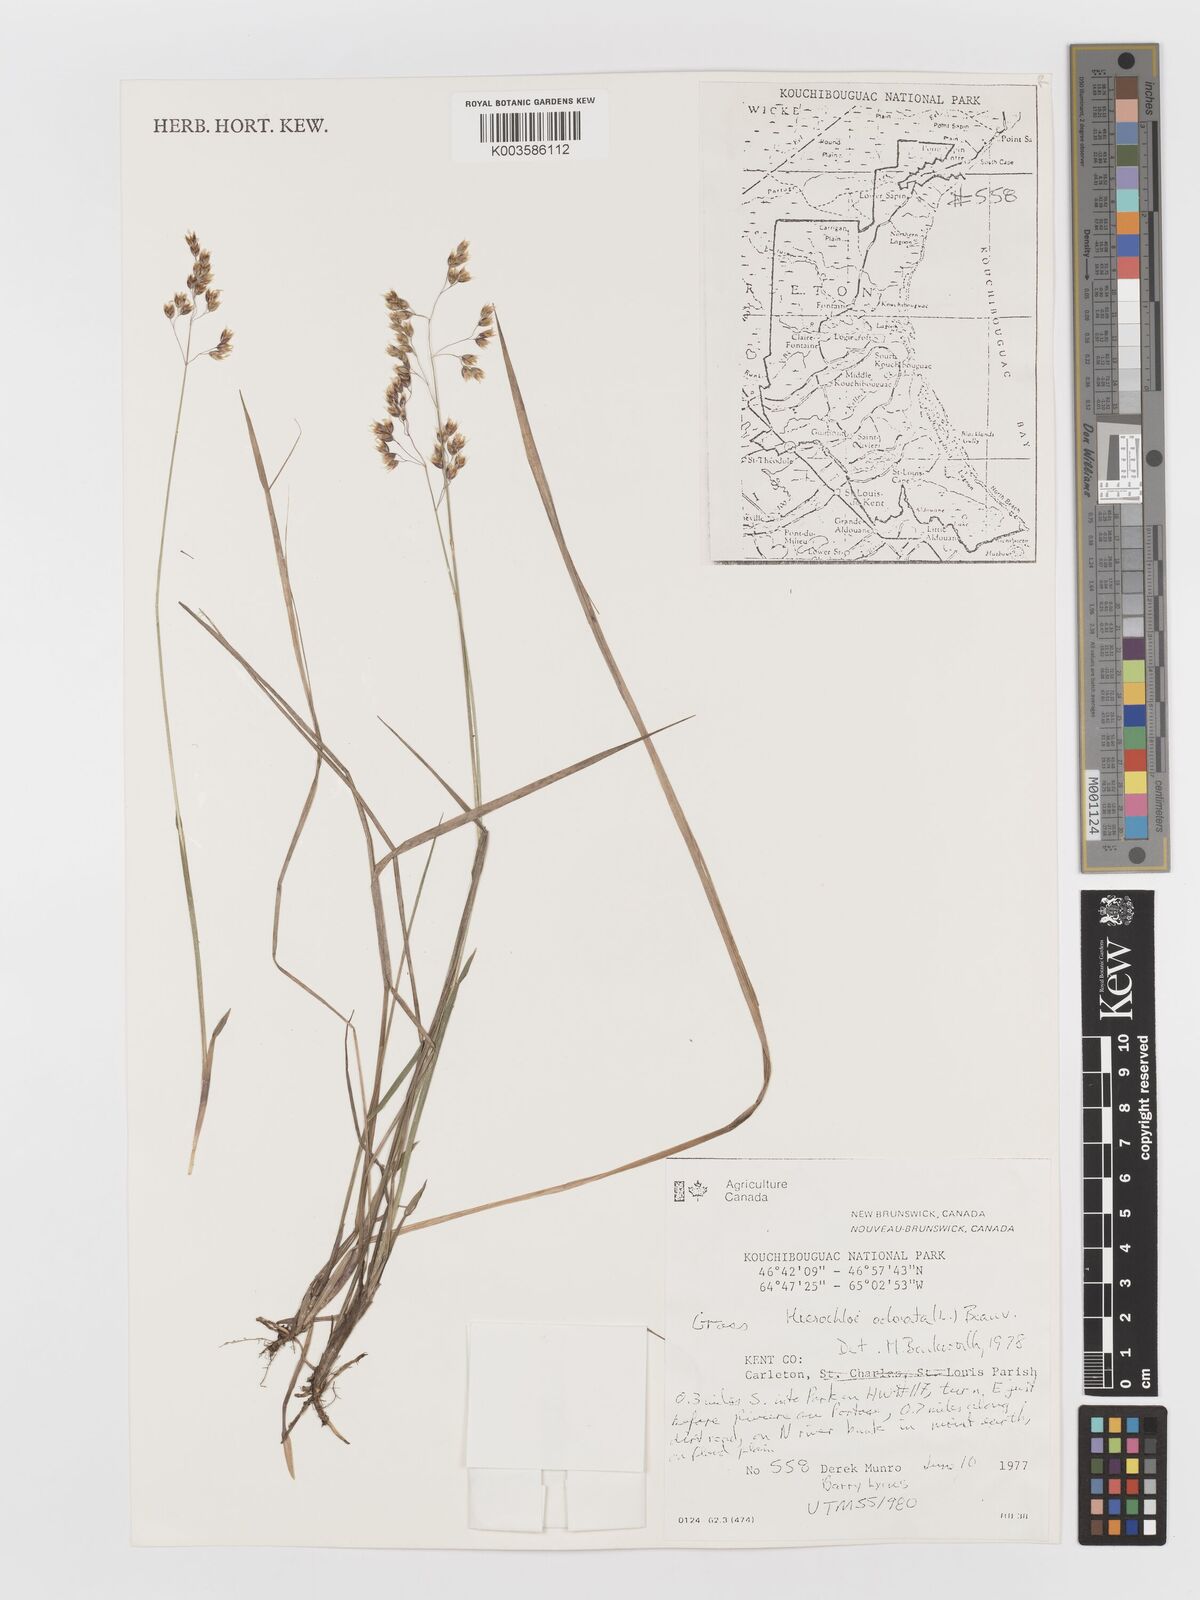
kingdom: Plantae
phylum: Tracheophyta
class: Liliopsida
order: Poales
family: Poaceae
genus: Anthoxanthum
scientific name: Anthoxanthum nitens
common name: Holy grass
